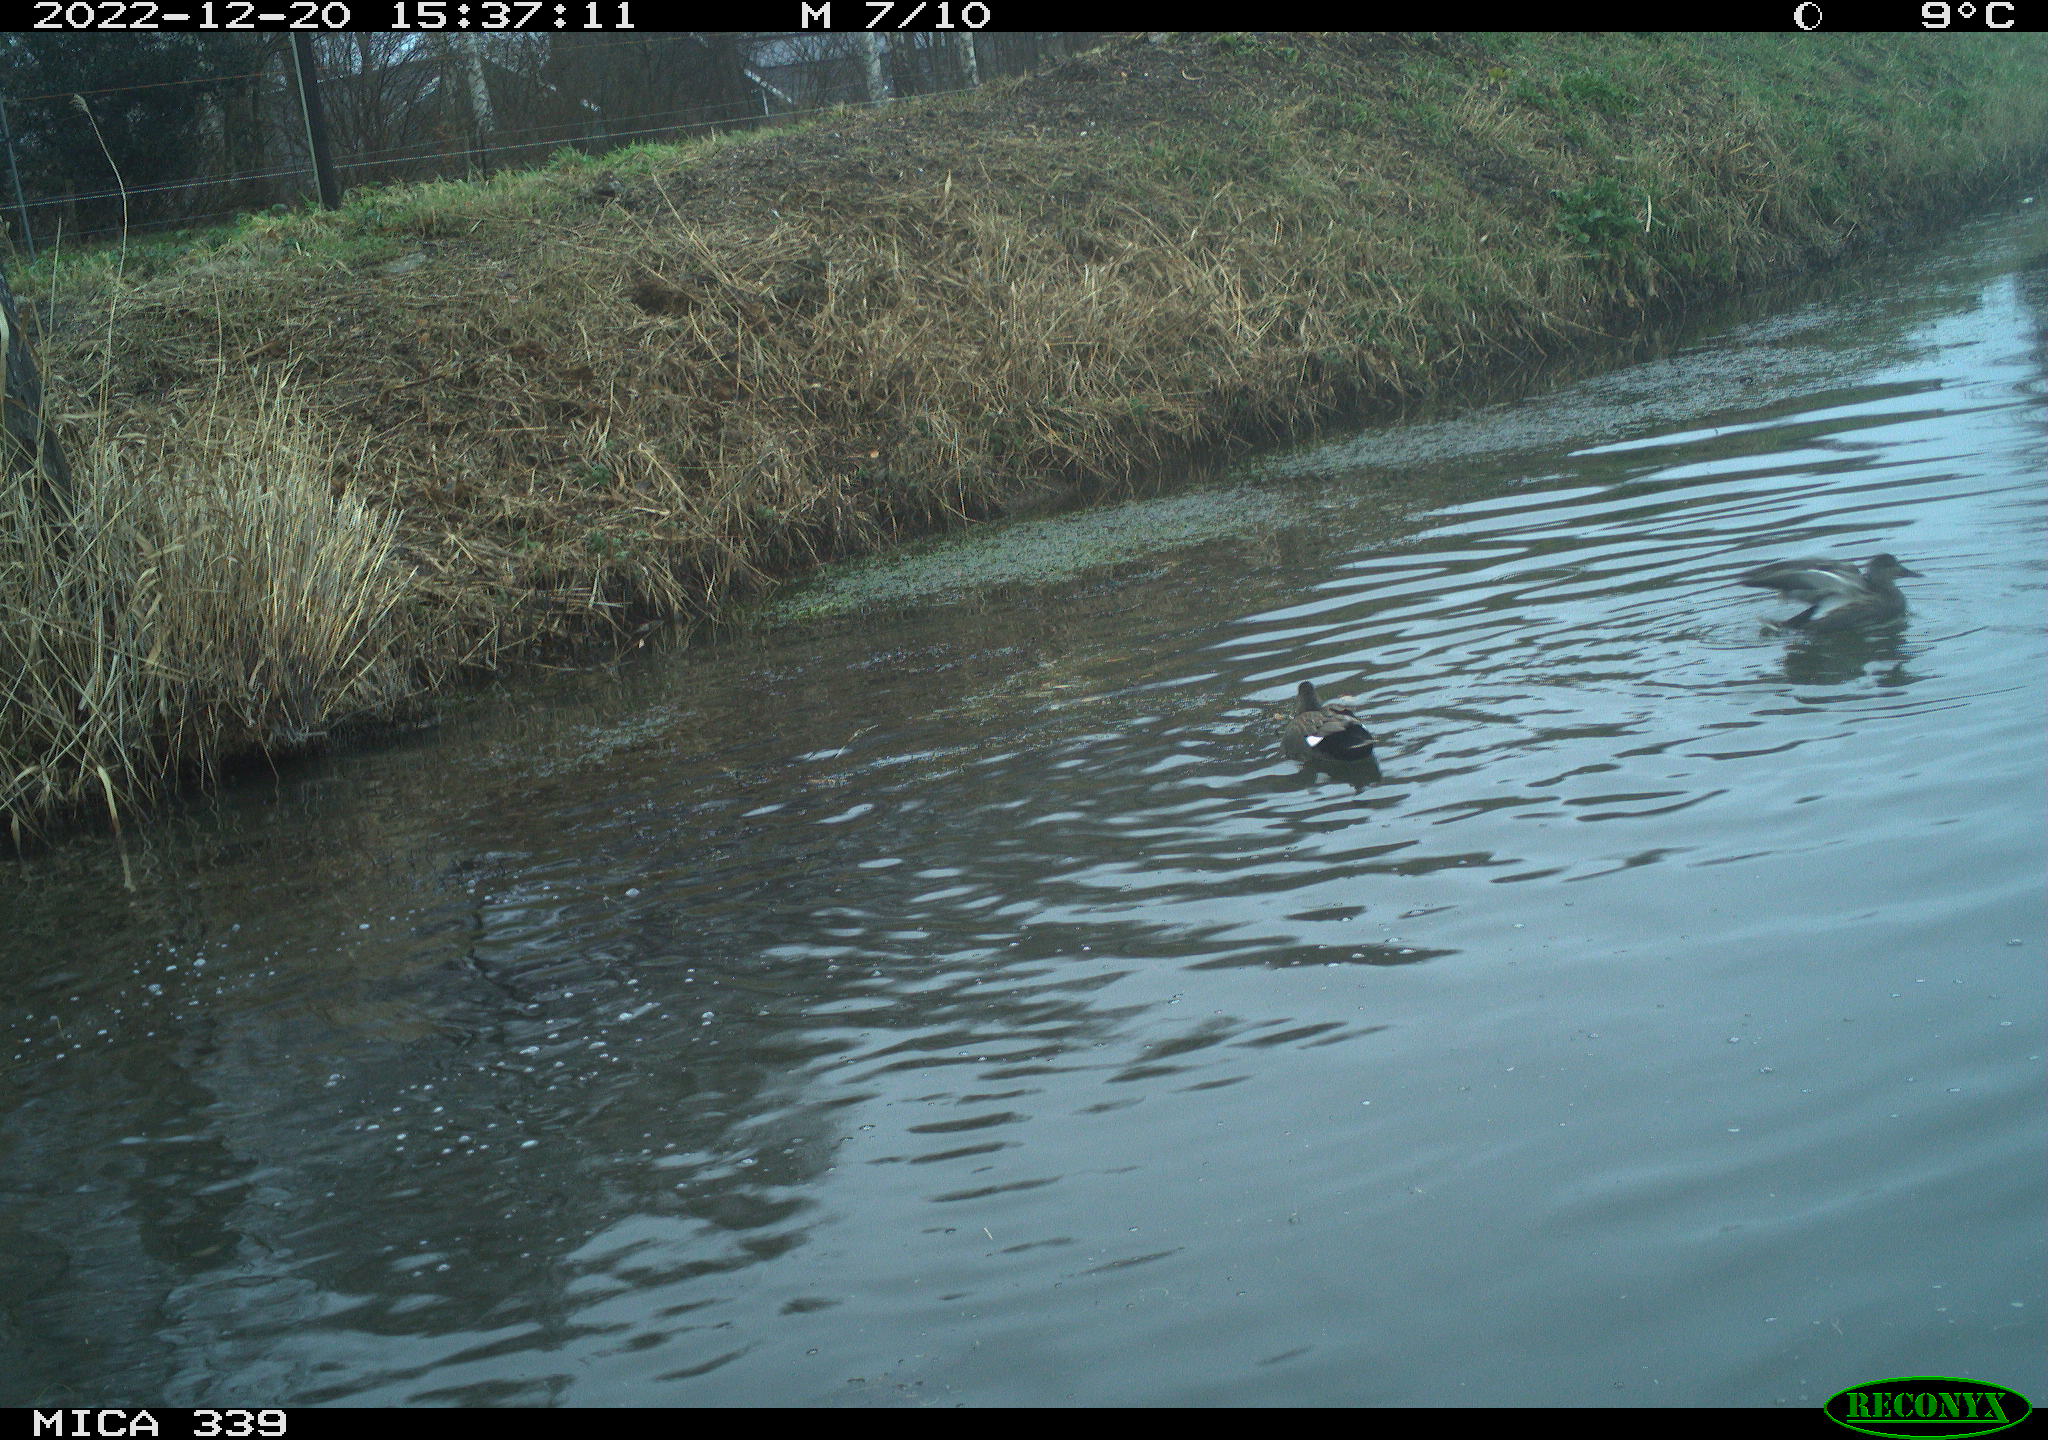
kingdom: Animalia
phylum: Chordata
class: Aves
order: Anseriformes
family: Anatidae
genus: Anas
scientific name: Anas
